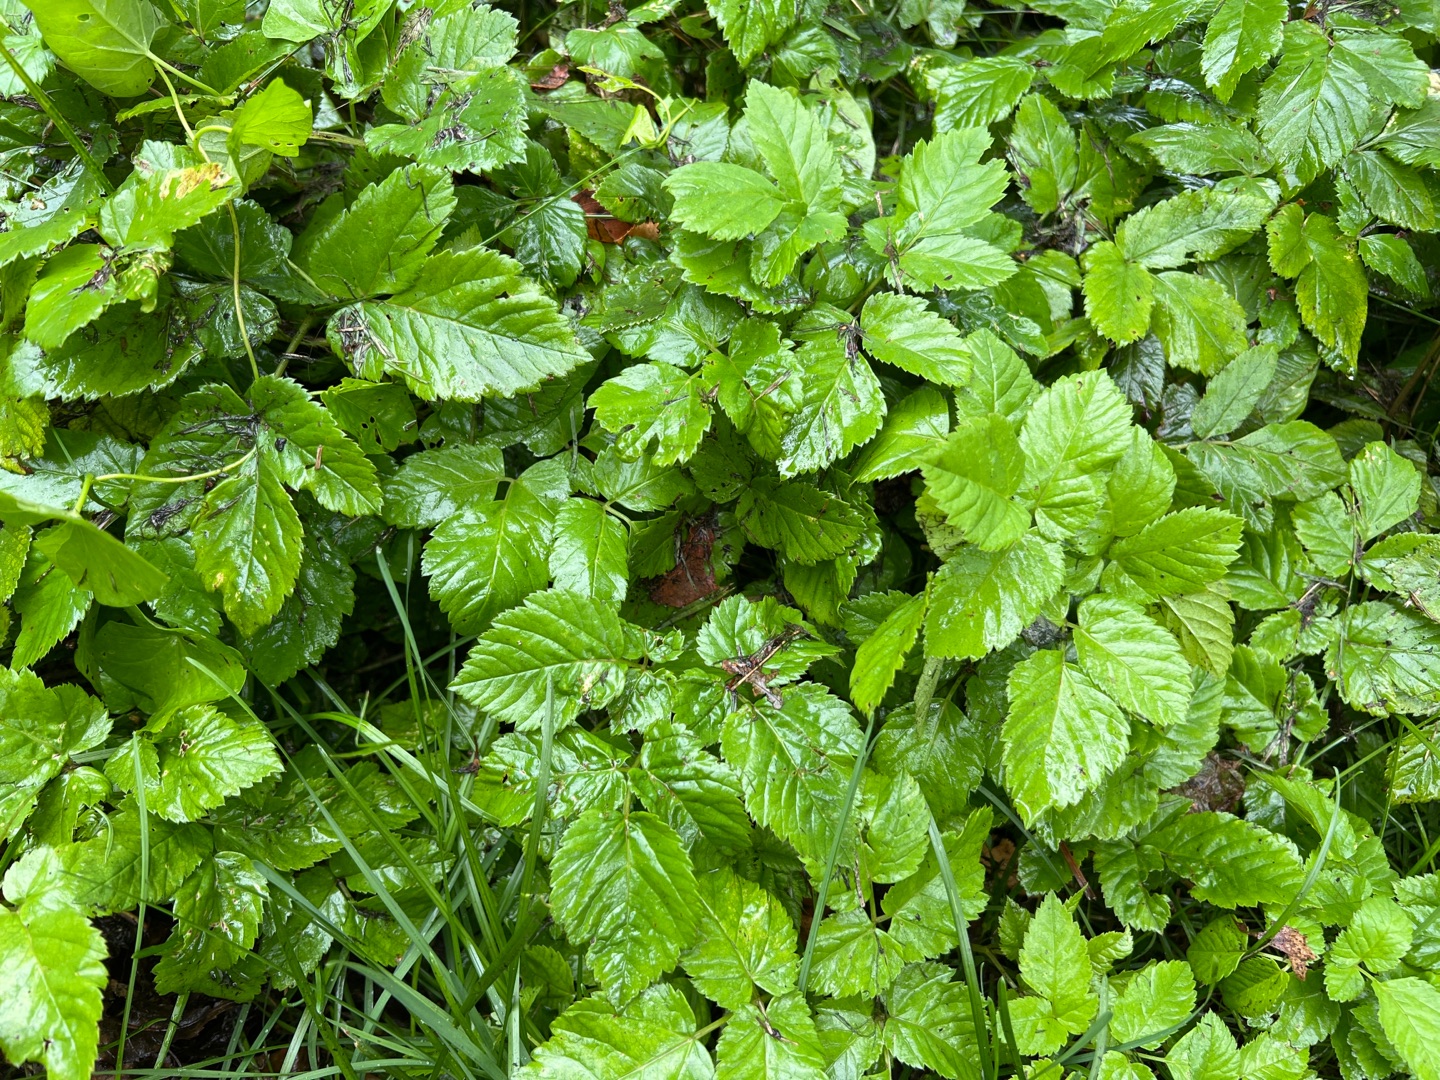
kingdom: Plantae
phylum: Tracheophyta
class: Magnoliopsida
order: Apiales
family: Apiaceae
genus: Aegopodium
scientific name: Aegopodium podagraria
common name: Skvalderkål
